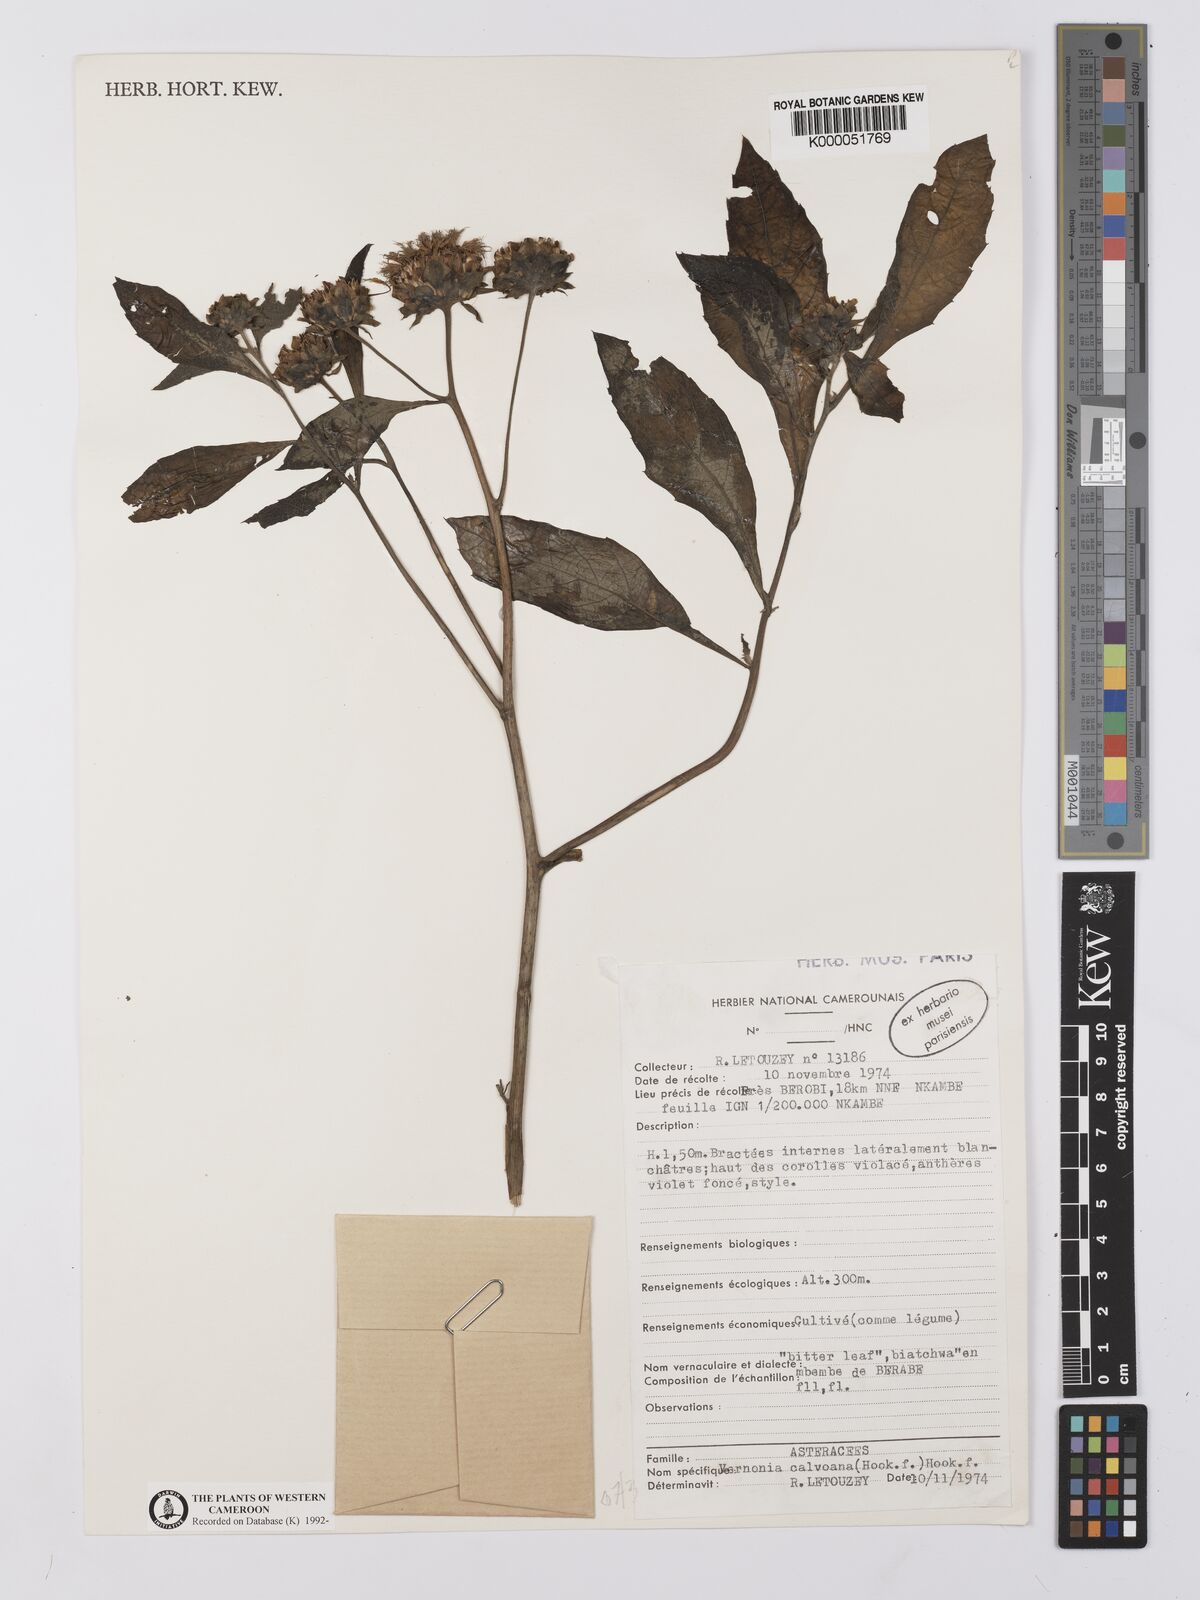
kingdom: Plantae
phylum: Tracheophyta
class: Magnoliopsida
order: Asterales
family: Asteraceae
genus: Baccharoides
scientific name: Baccharoides calvoana
